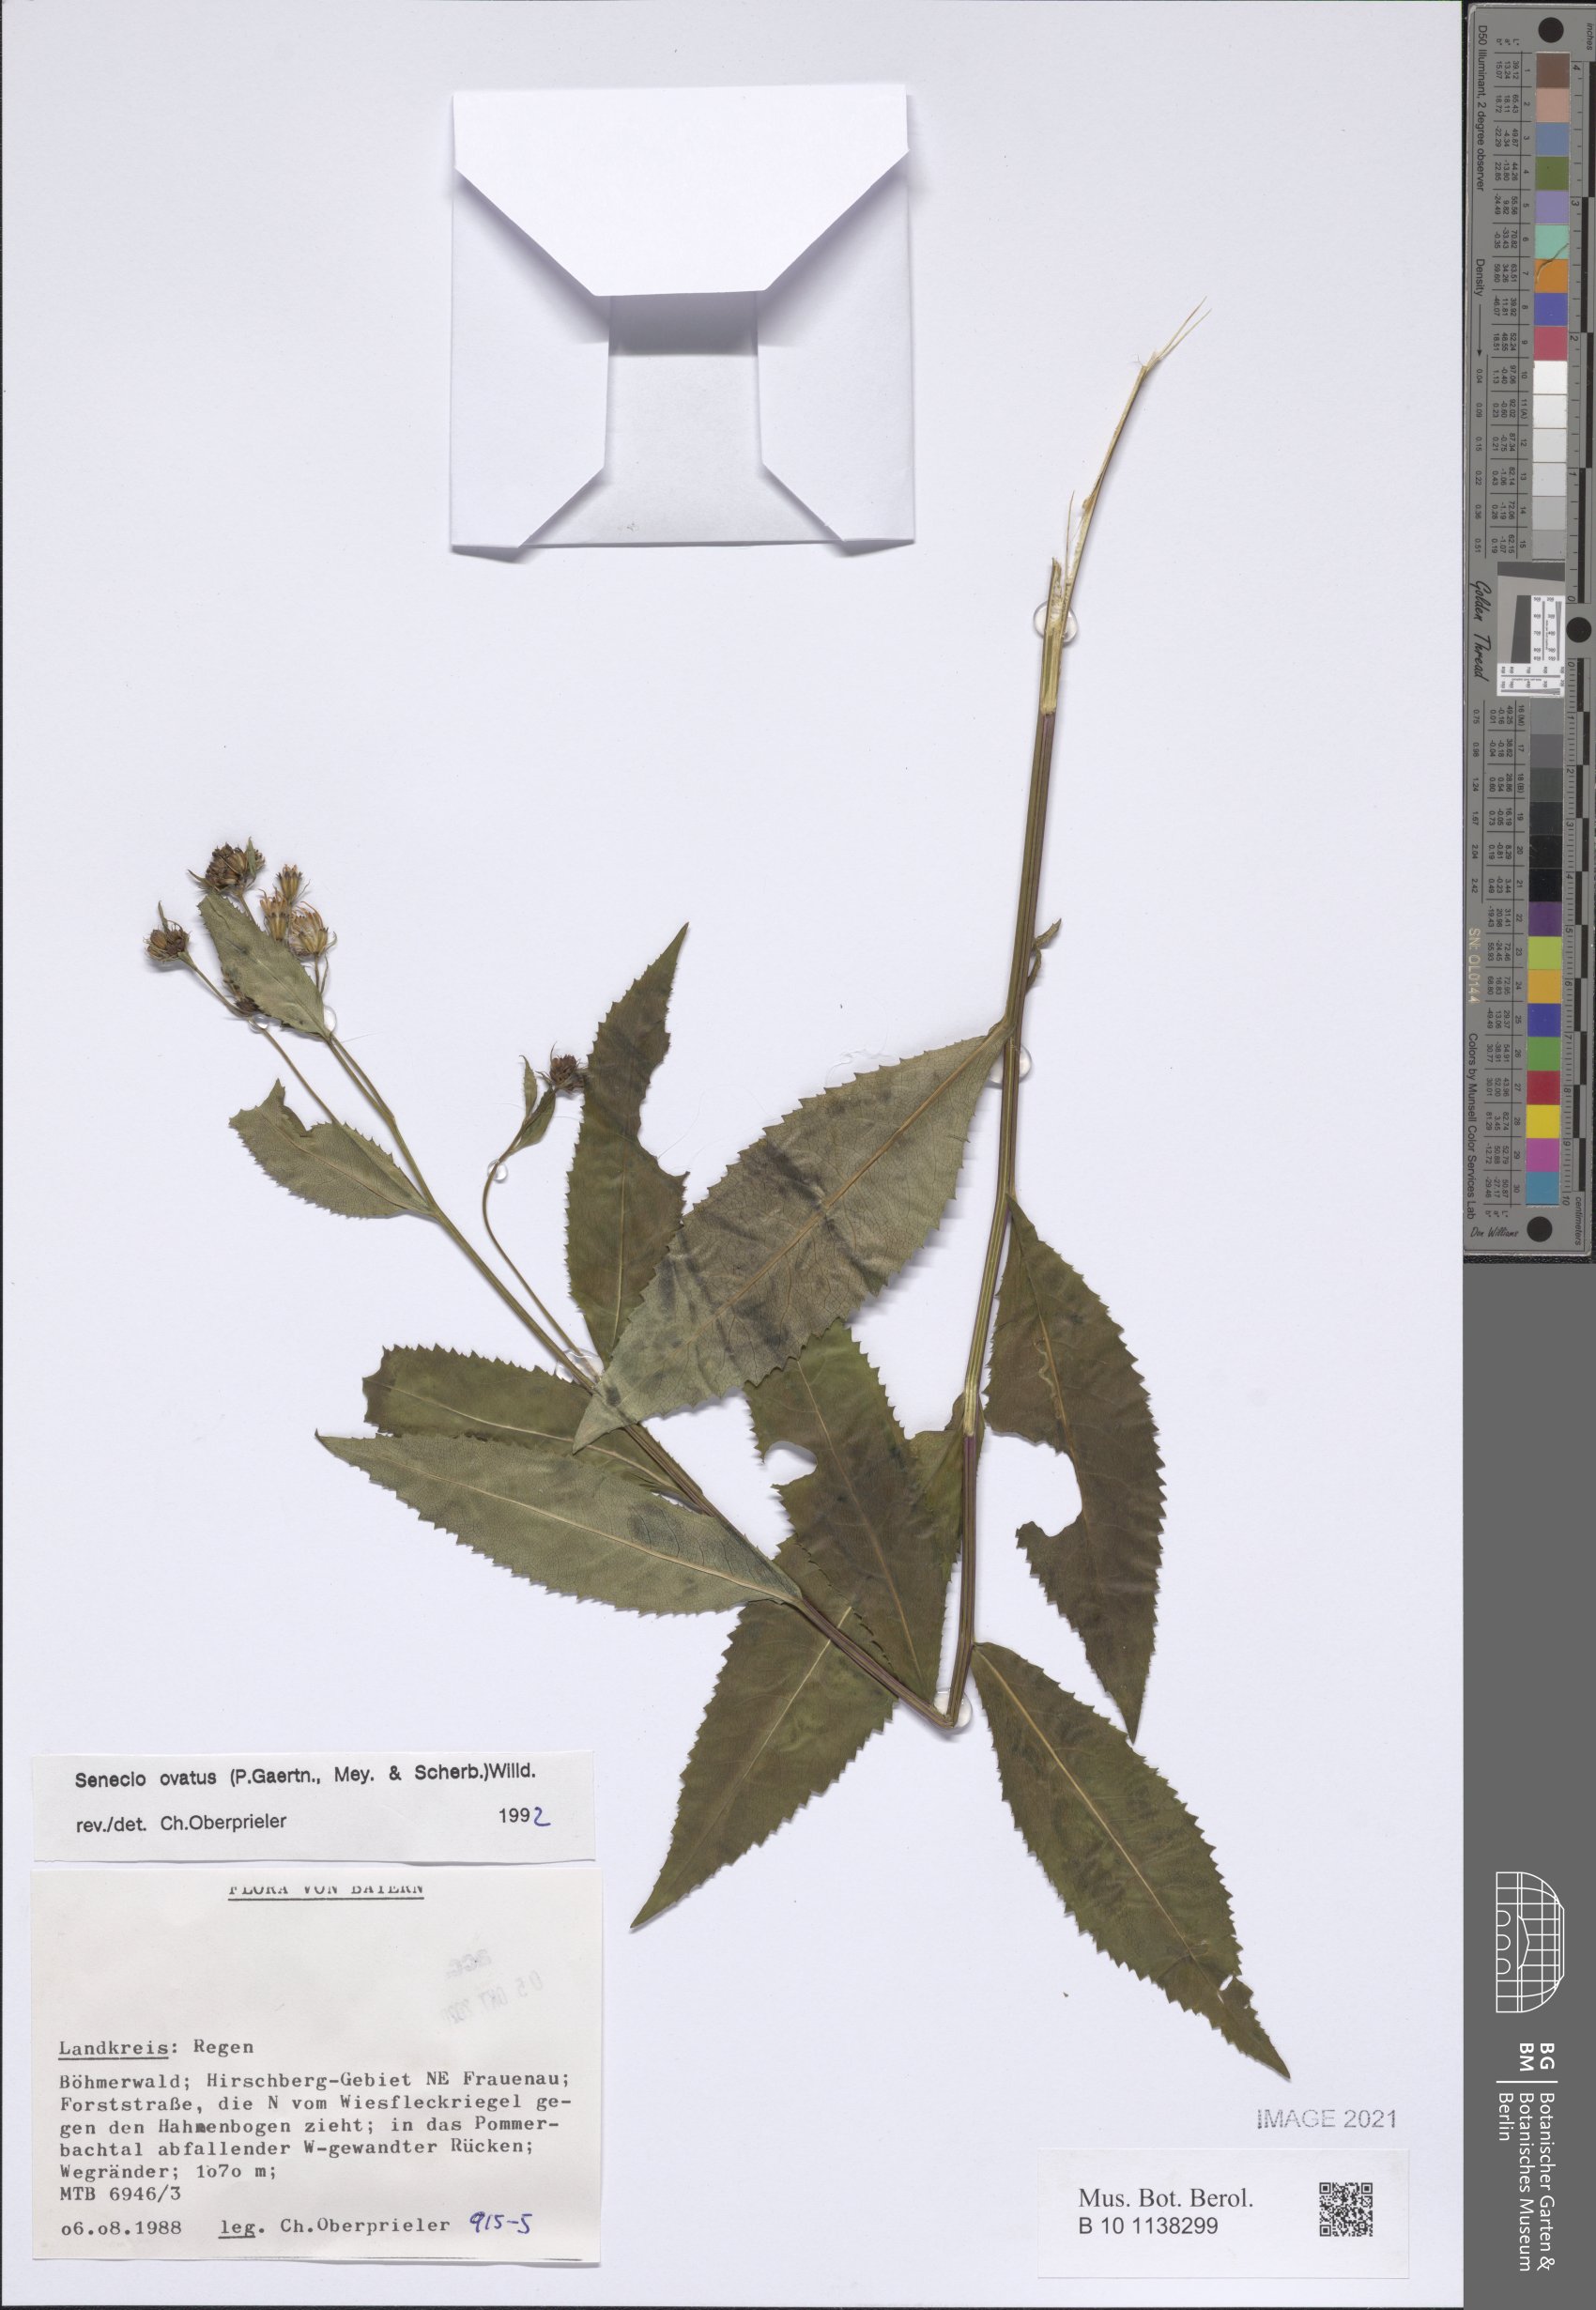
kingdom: Plantae
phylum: Tracheophyta
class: Magnoliopsida
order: Asterales
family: Asteraceae
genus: Senecio
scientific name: Senecio ovatus
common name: Wood ragwort
